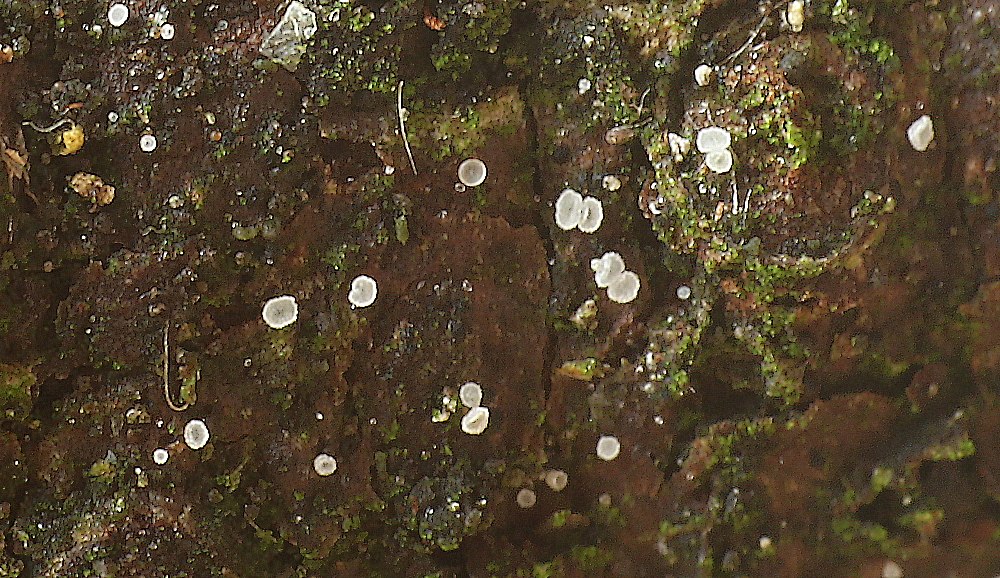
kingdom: Fungi
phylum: Ascomycota
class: Leotiomycetes
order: Helotiales
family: Hyaloscyphaceae
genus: Hyaloscypha
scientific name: Hyaloscypha
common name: klarskive
